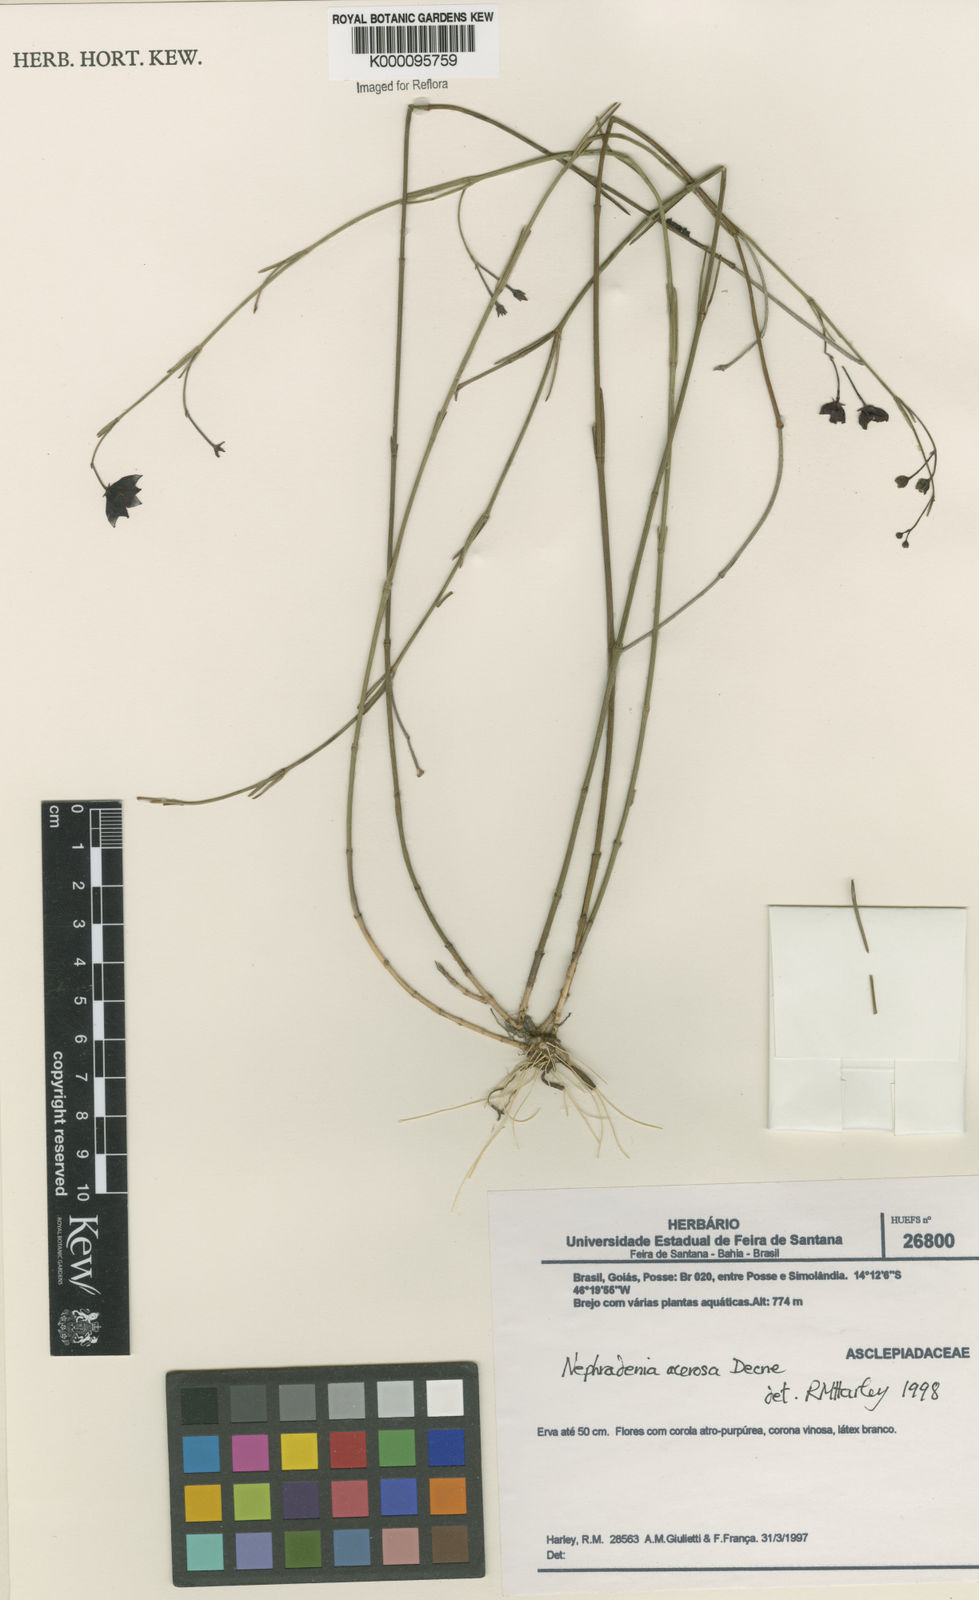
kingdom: Plantae
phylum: Tracheophyta
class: Magnoliopsida
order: Gentianales
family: Apocynaceae
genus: Nephradenia
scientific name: Nephradenia acerosa
